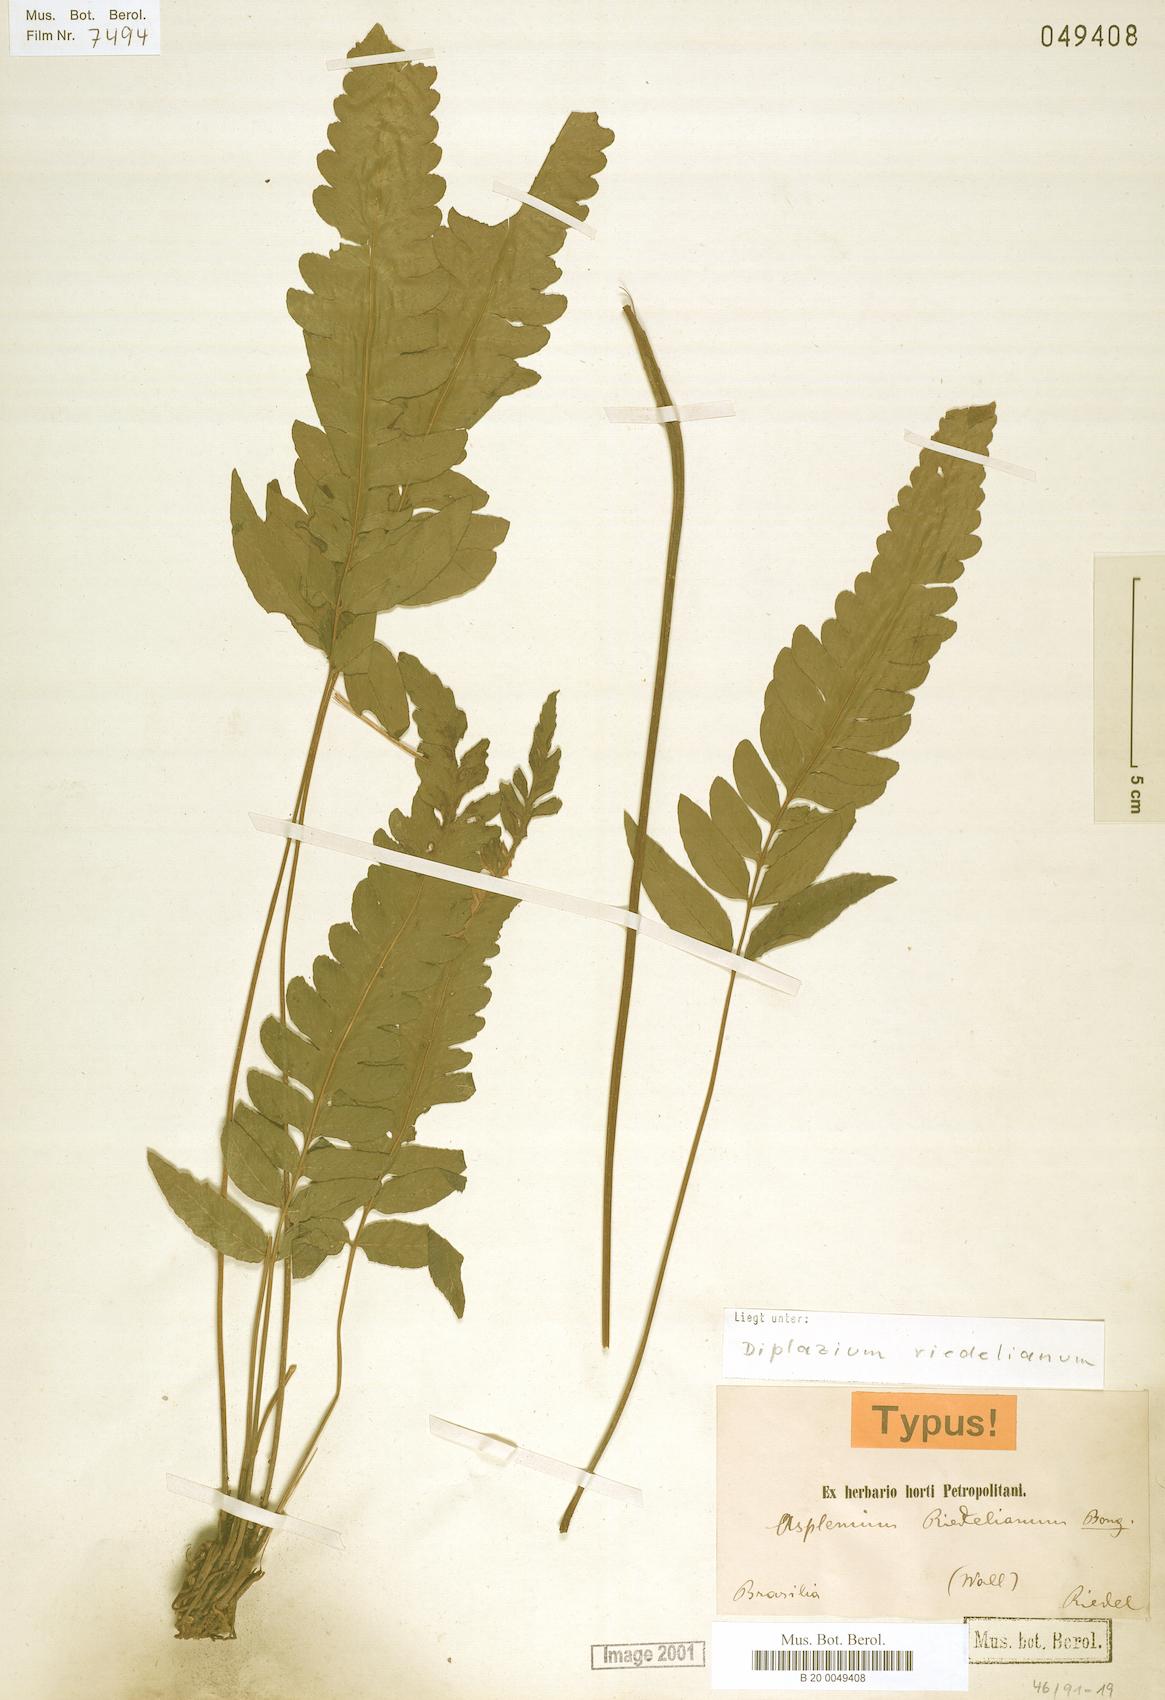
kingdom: Plantae
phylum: Tracheophyta
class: Polypodiopsida
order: Polypodiales
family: Athyriaceae
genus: Diplazium
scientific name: Diplazium riedelianum
